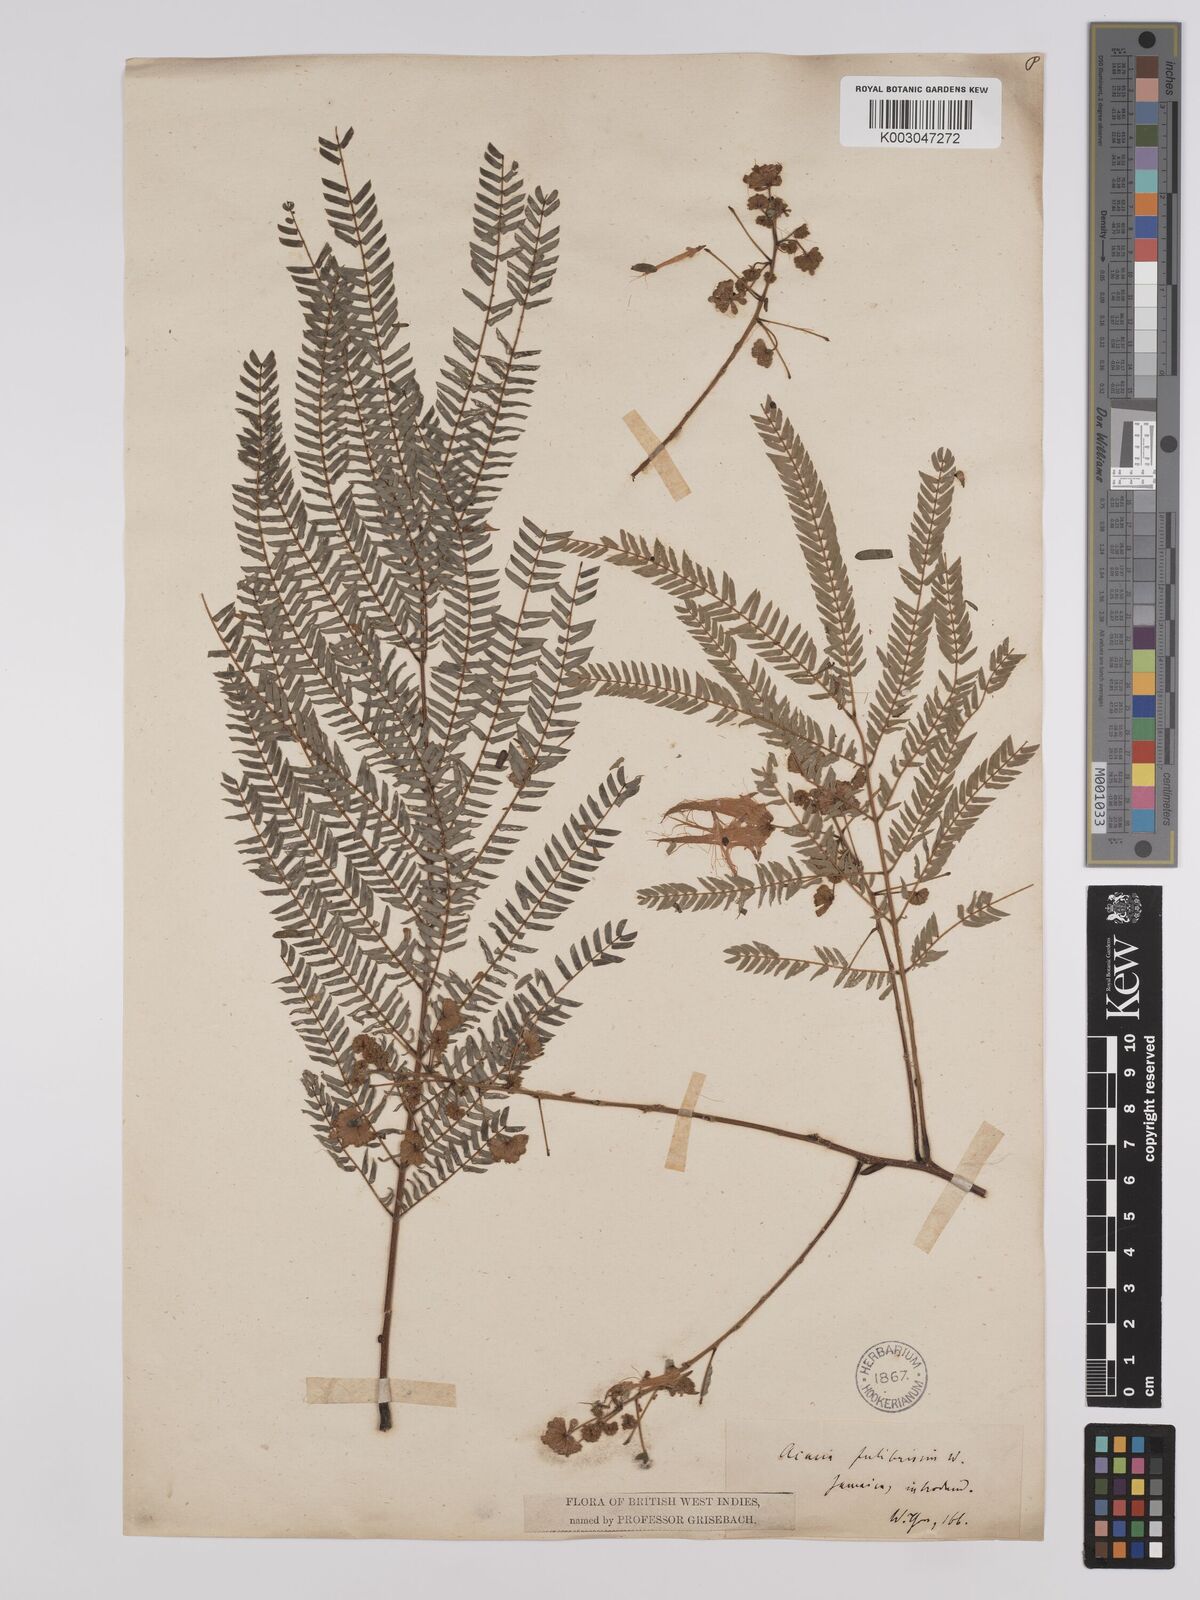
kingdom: Plantae
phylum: Tracheophyta
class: Magnoliopsida
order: Fabales
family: Fabaceae
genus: Albizia
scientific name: Albizia julibrissin
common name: Silktree
